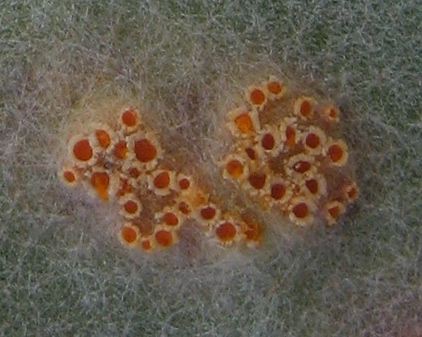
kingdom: Fungi
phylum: Basidiomycota
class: Pucciniomycetes
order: Pucciniales
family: Pucciniaceae
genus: Puccinia
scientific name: Puccinia poarum
